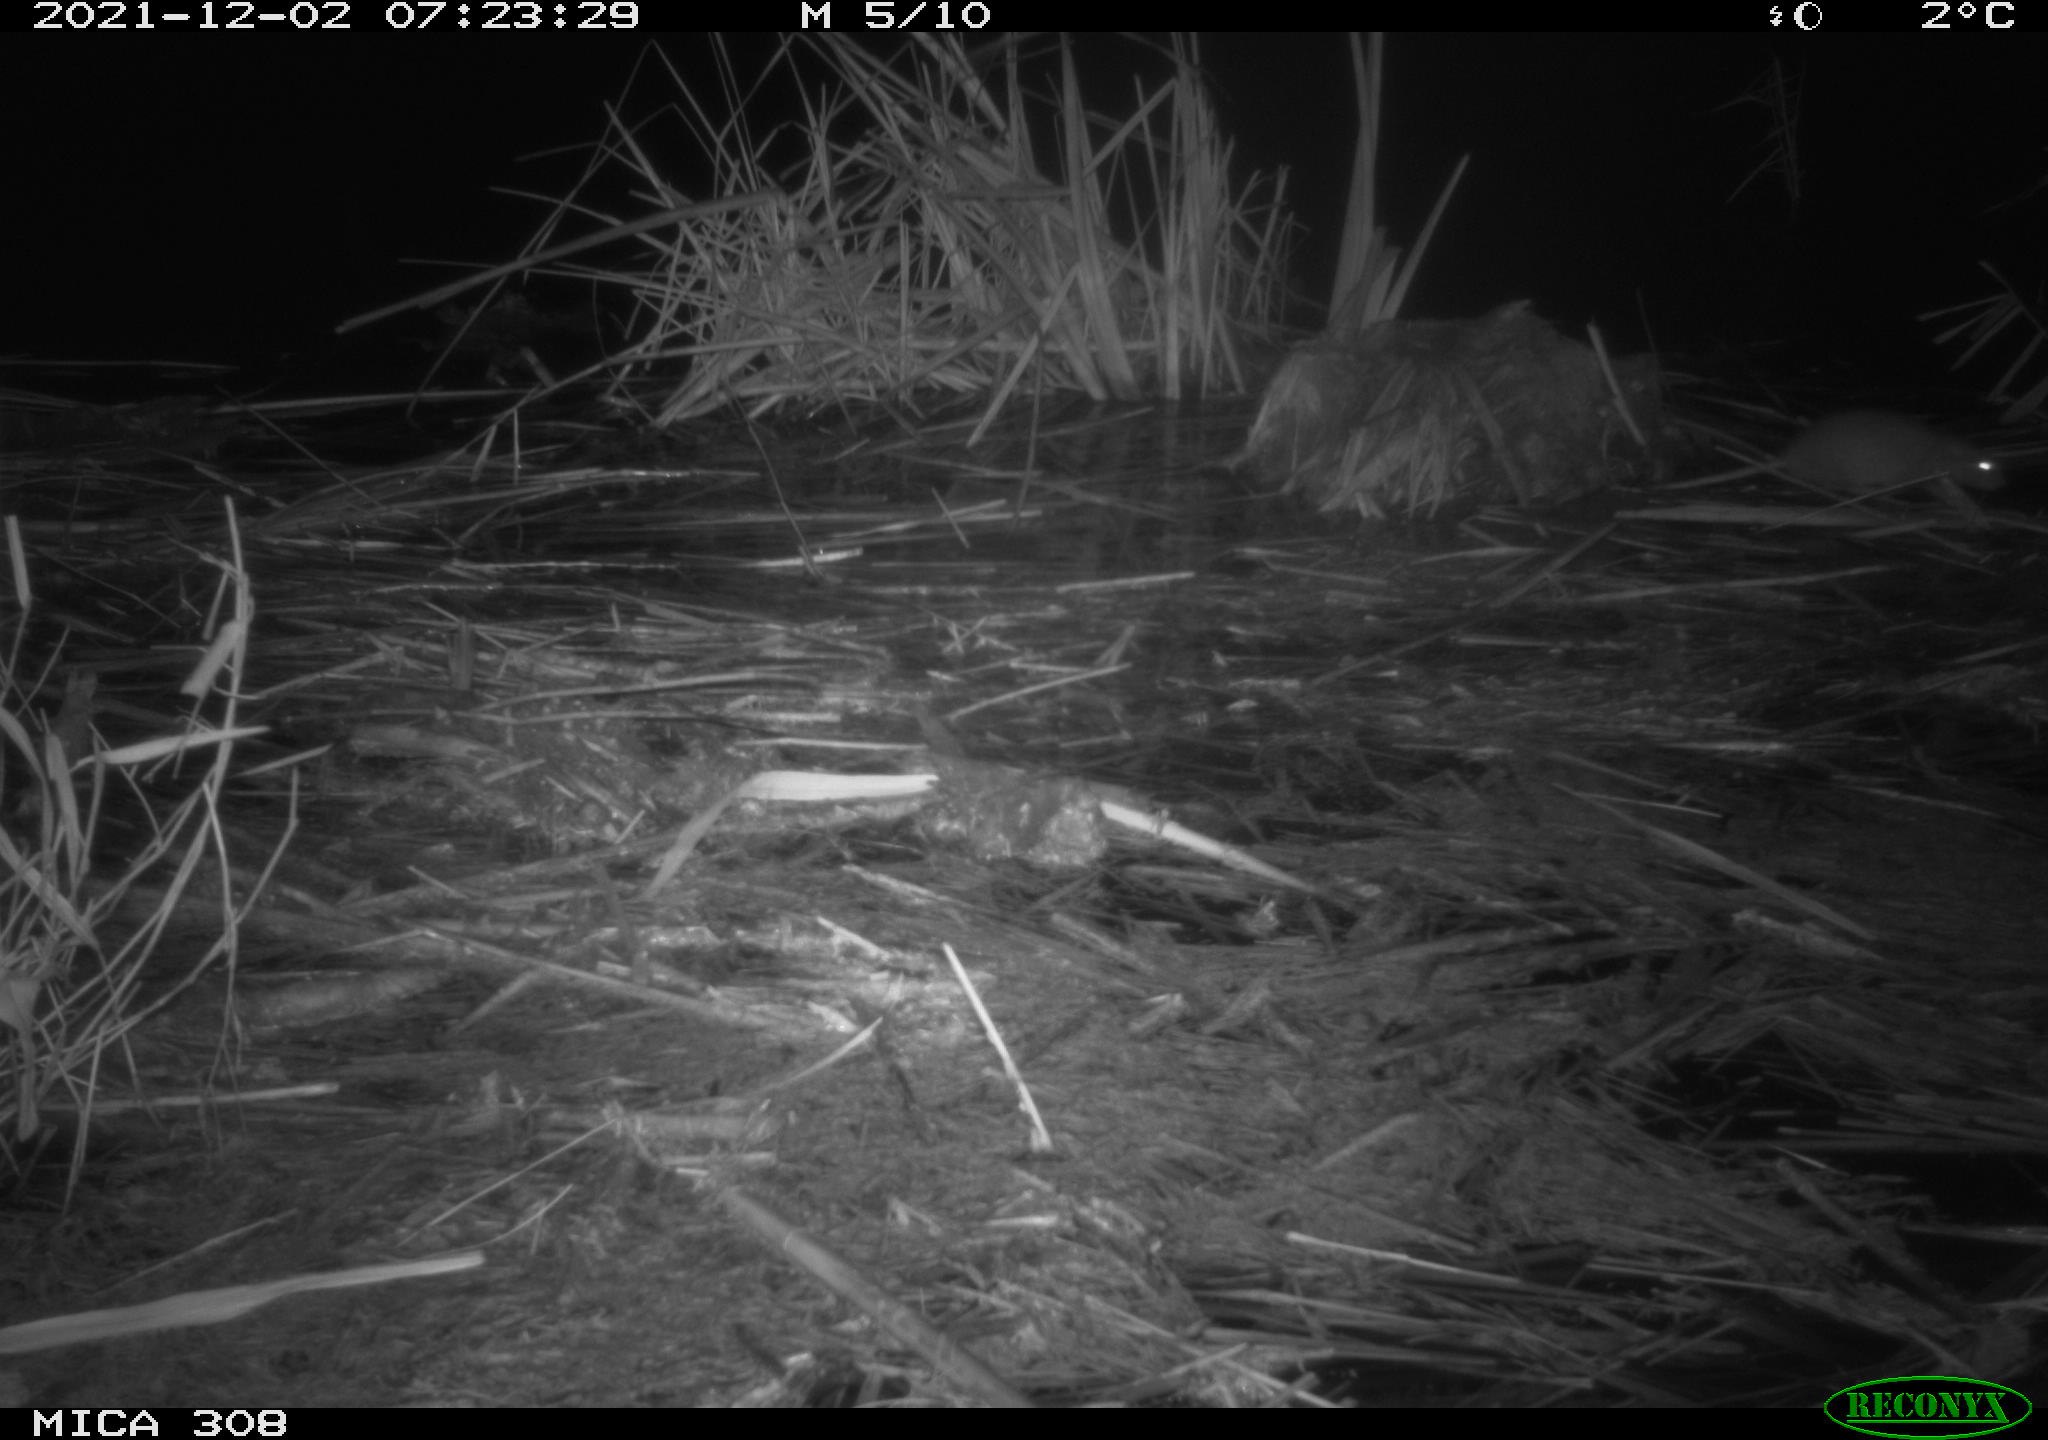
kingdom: Animalia
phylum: Chordata
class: Mammalia
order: Rodentia
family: Muridae
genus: Rattus
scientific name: Rattus norvegicus
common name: Brown rat
